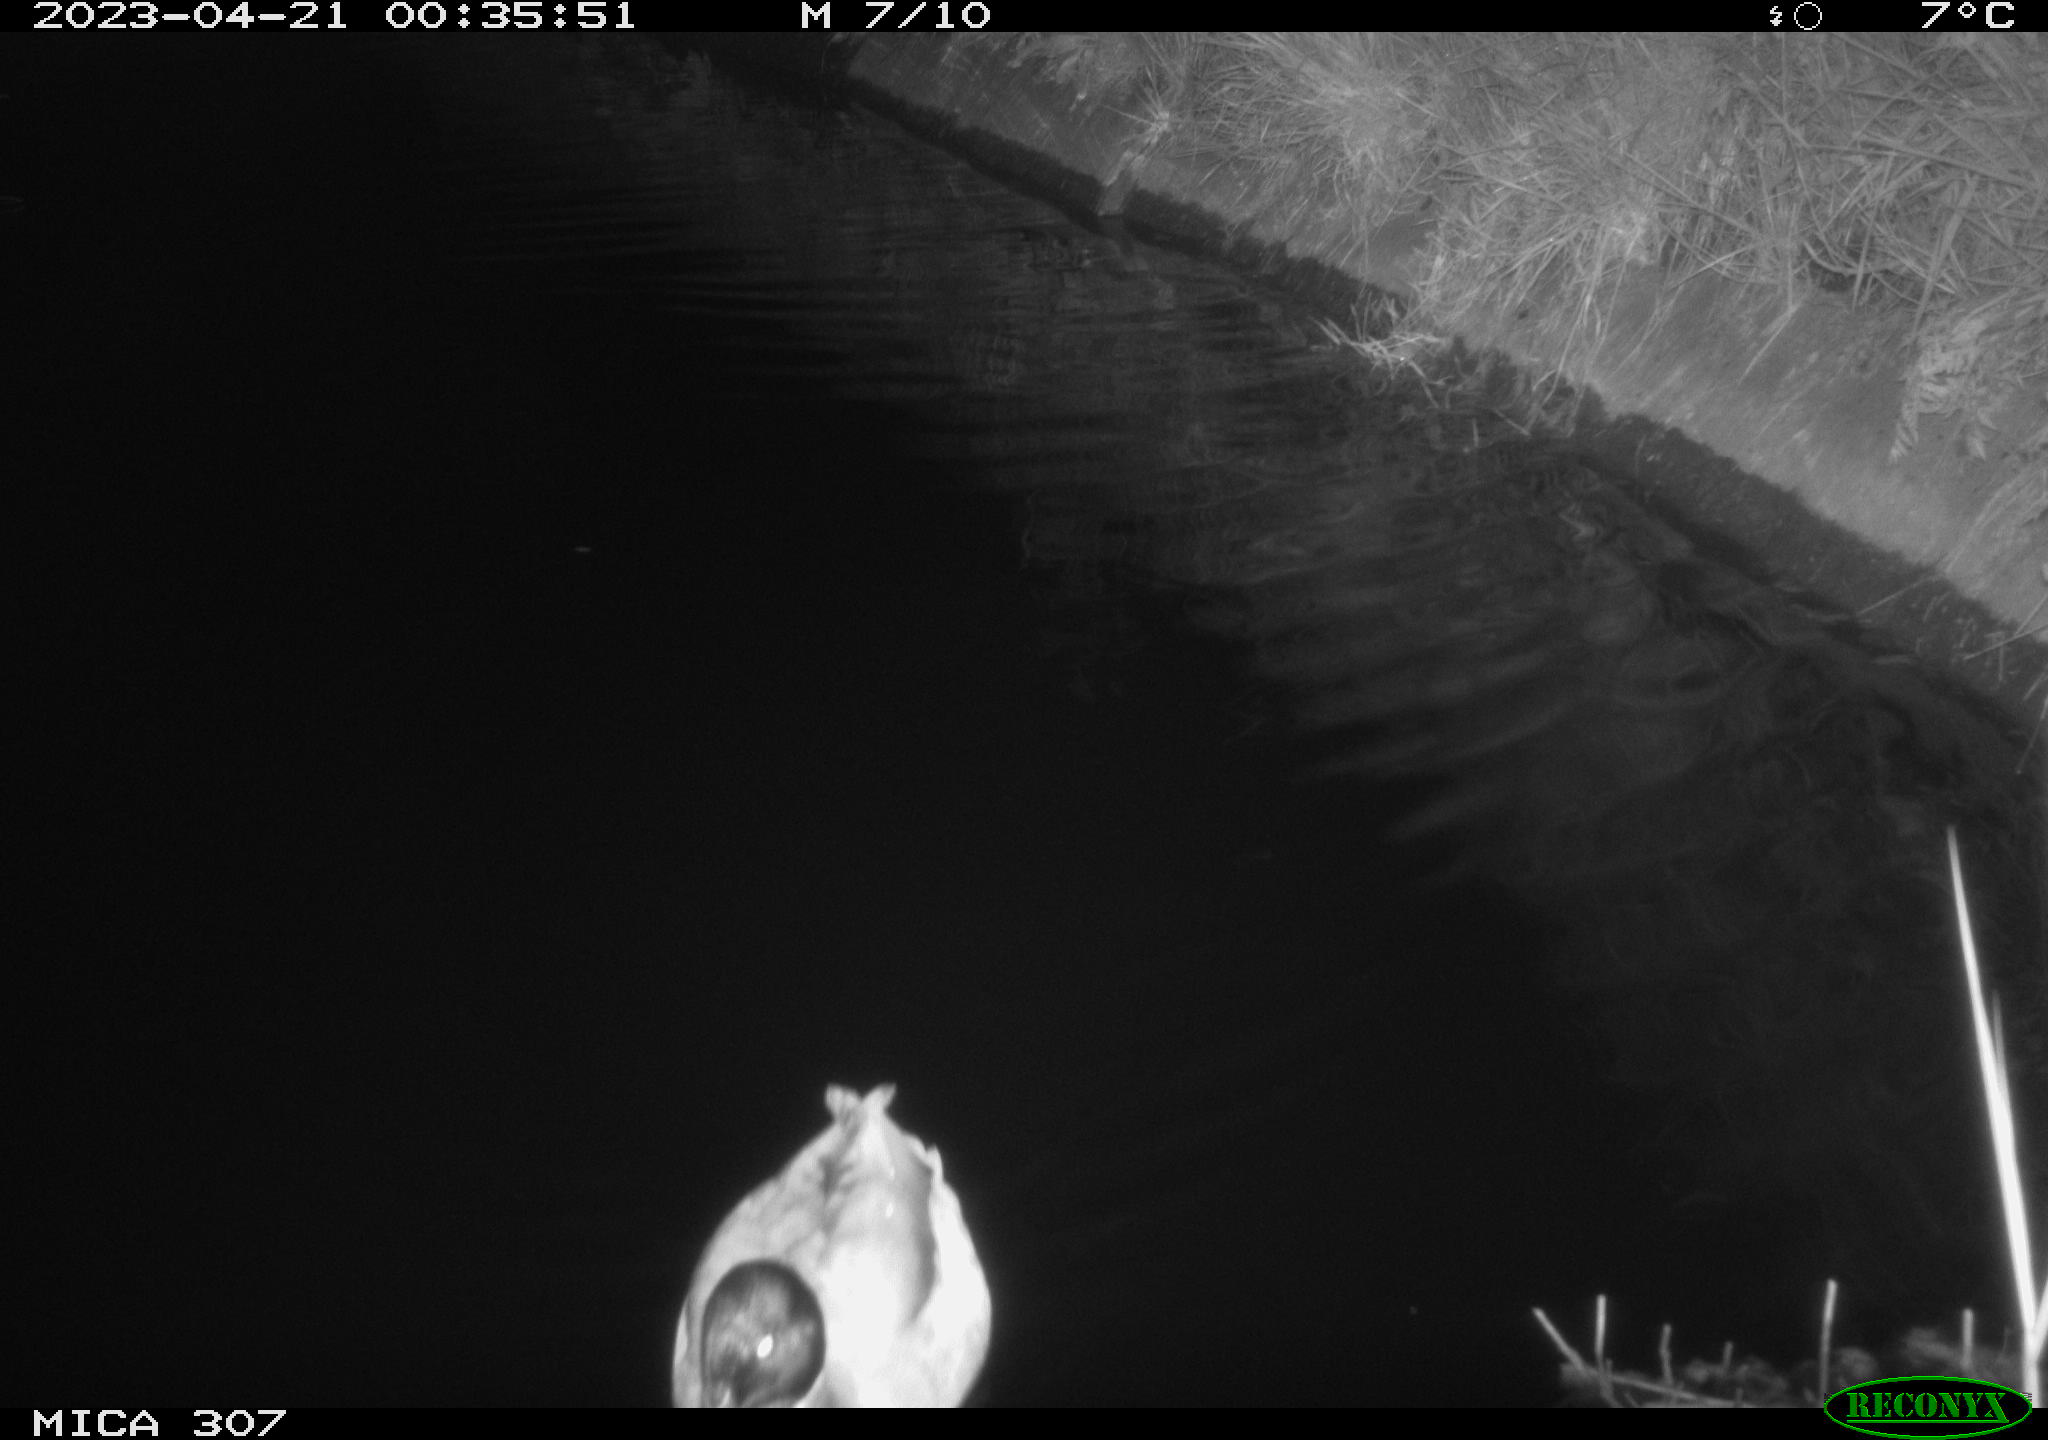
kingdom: Animalia
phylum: Chordata
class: Aves
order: Anseriformes
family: Anatidae
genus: Anas
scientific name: Anas
